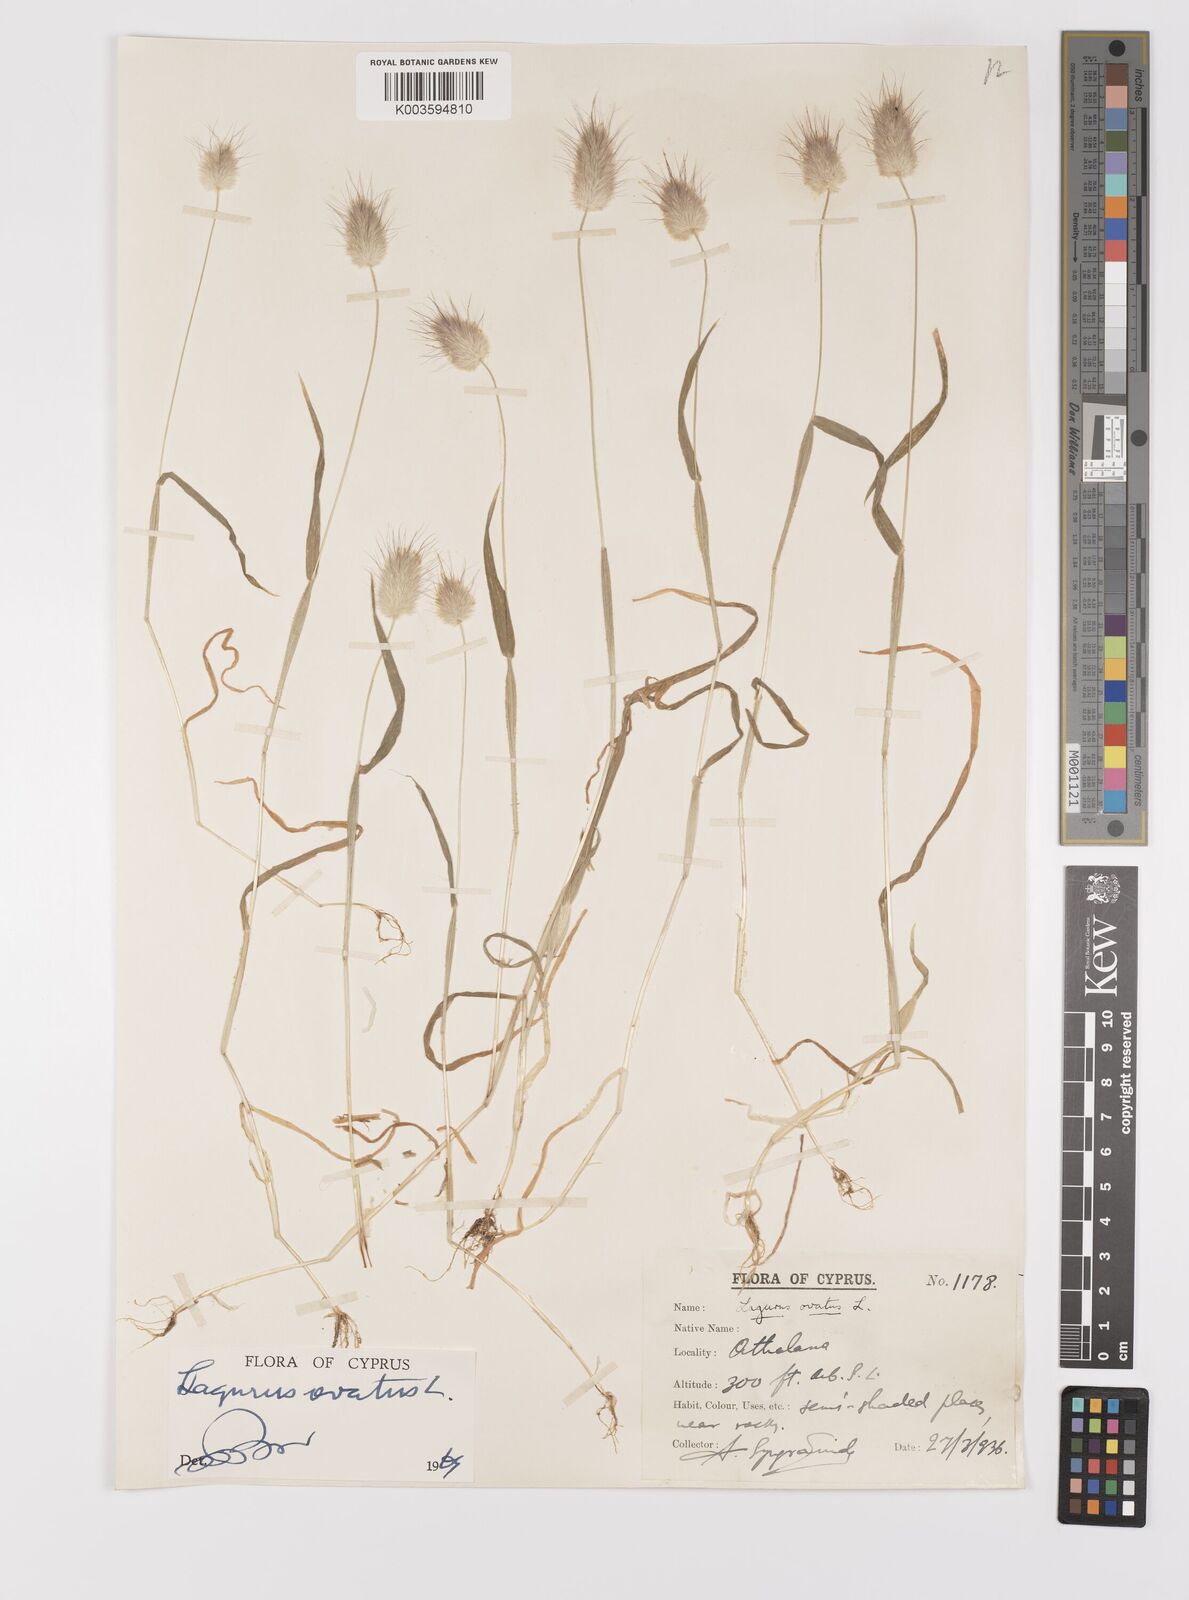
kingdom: Plantae
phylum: Tracheophyta
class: Liliopsida
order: Poales
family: Poaceae
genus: Lagurus
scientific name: Lagurus ovatus
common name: Hare's-tail
